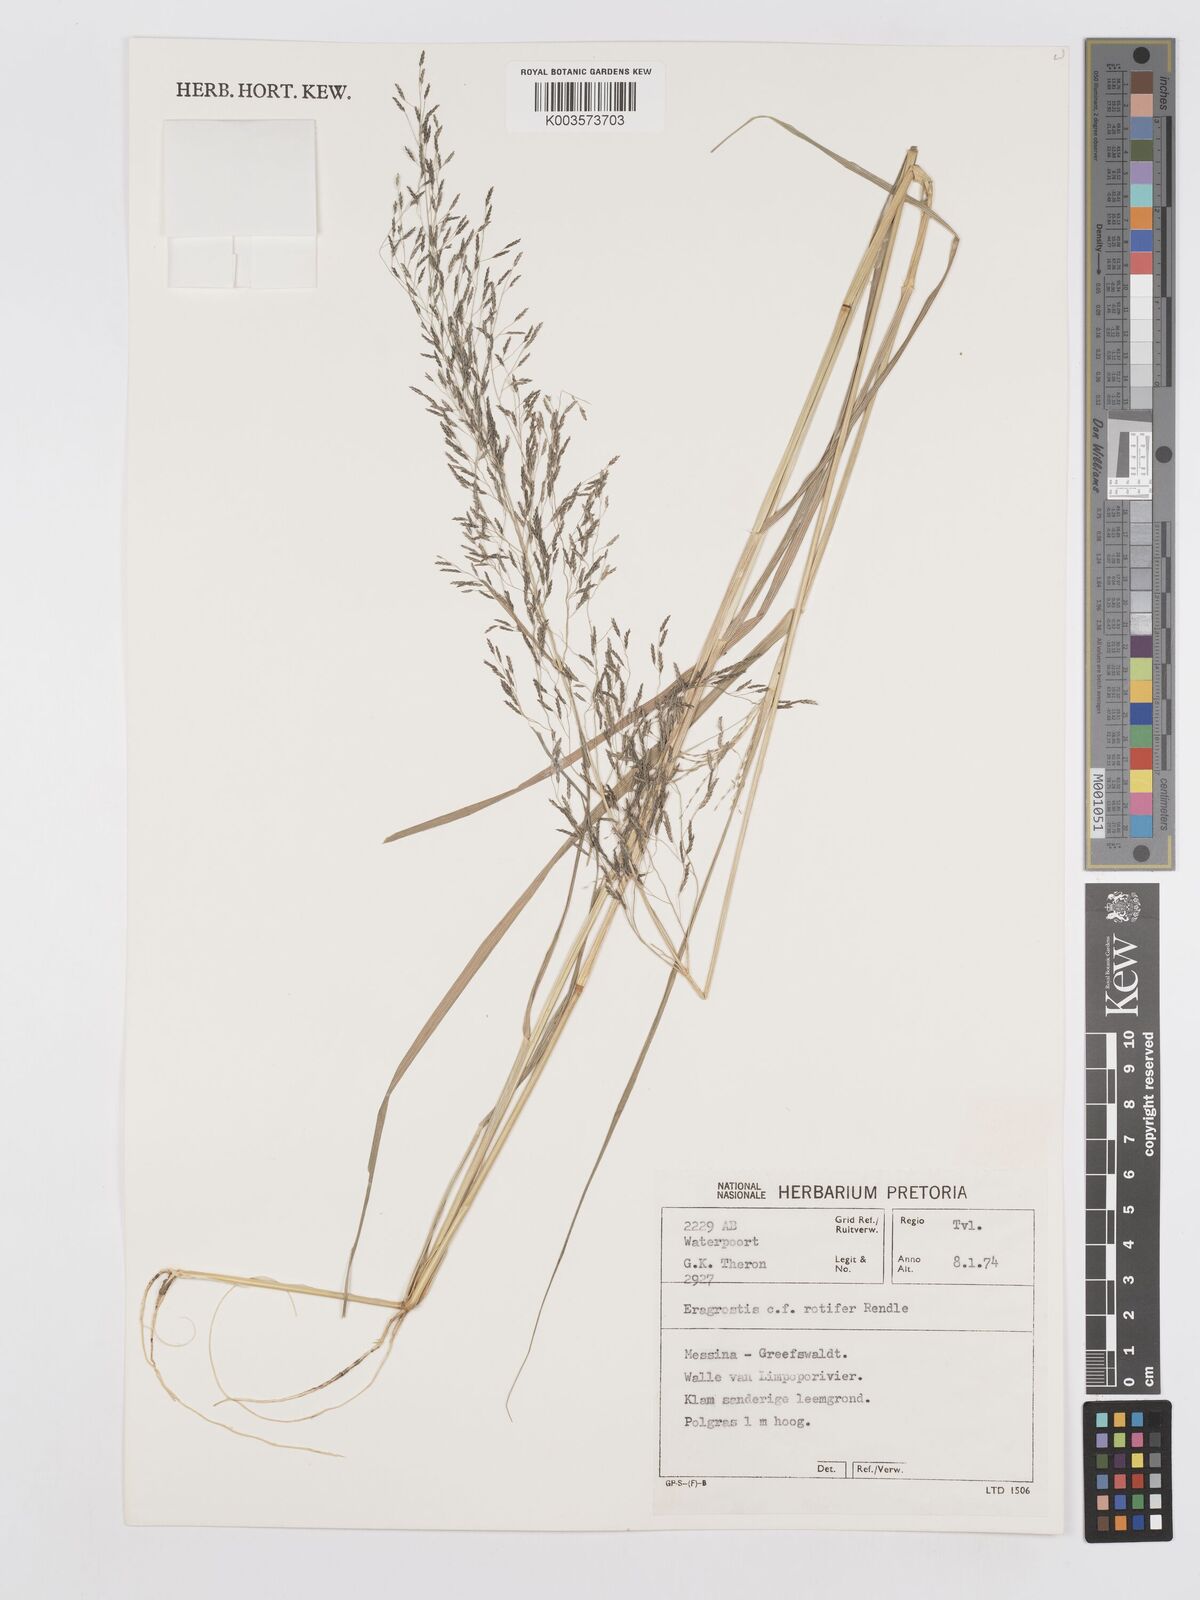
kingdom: Plantae
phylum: Tracheophyta
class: Liliopsida
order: Poales
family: Poaceae
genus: Eragrostis
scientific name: Eragrostis rotifer
